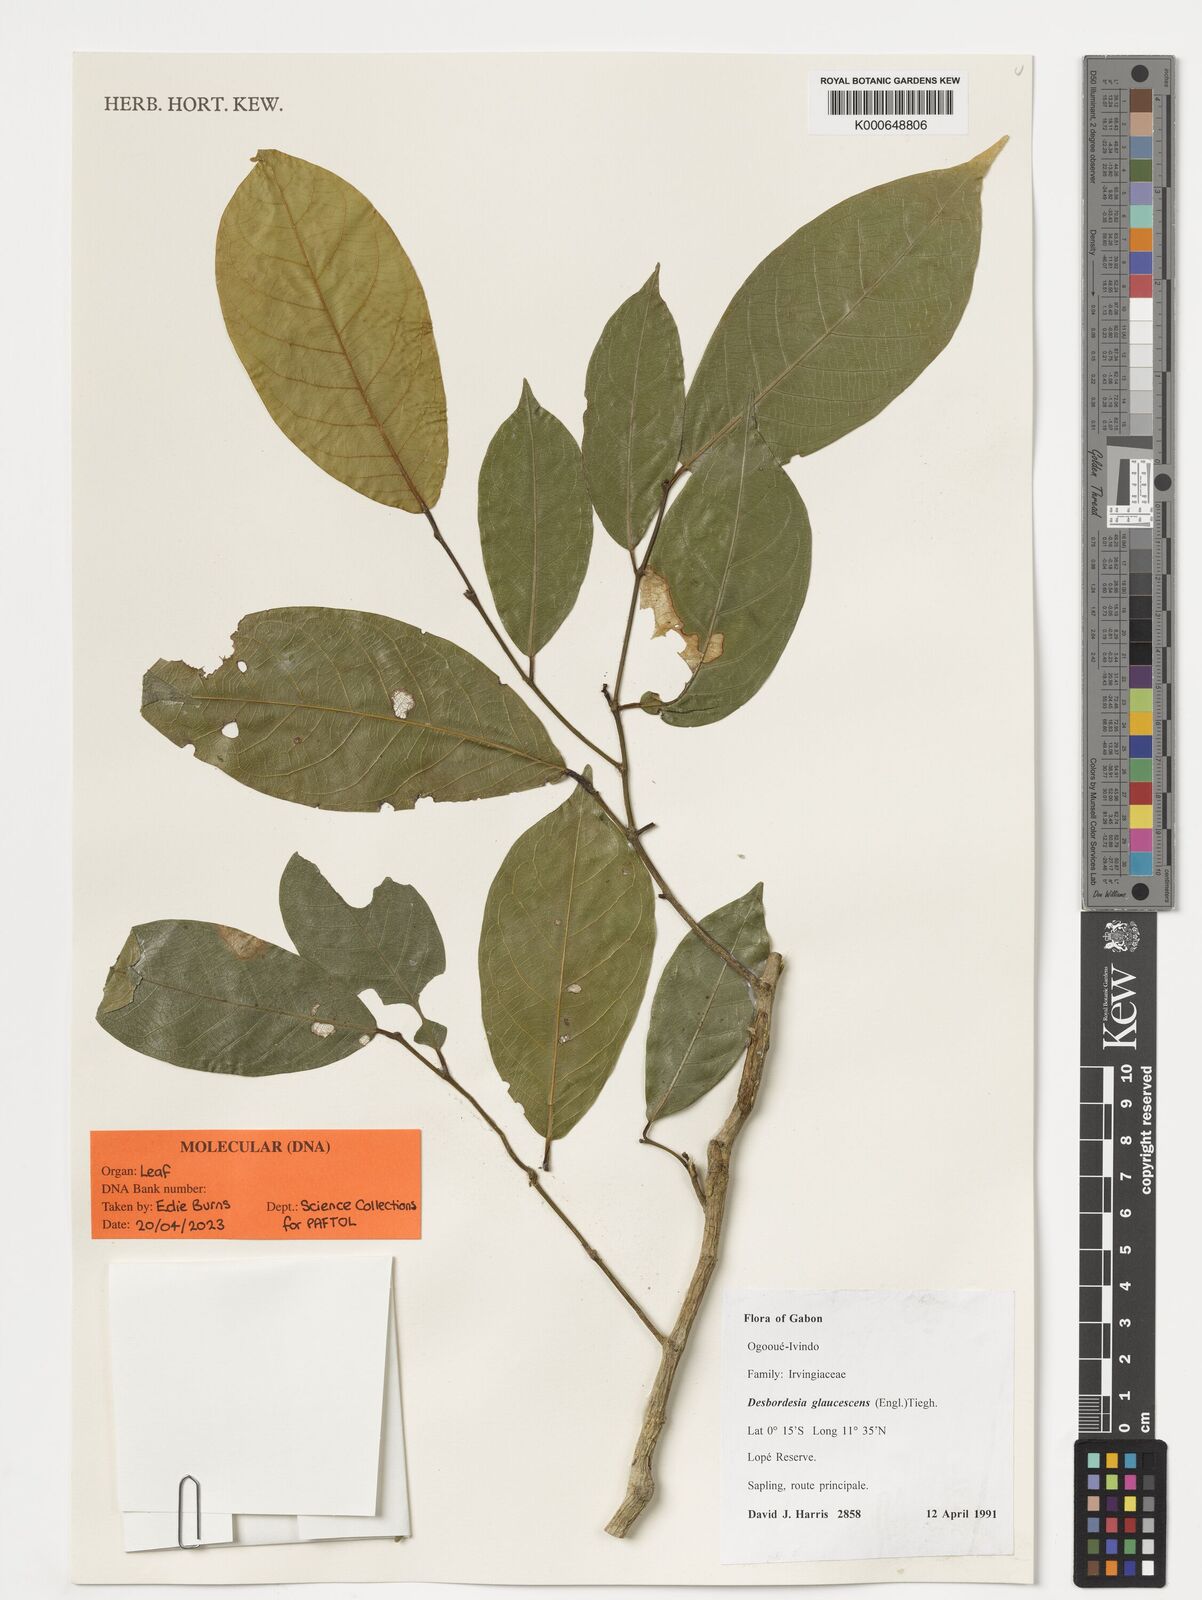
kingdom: Plantae
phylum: Tracheophyta
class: Magnoliopsida
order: Malpighiales
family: Irvingiaceae
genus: Desbordesia
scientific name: Desbordesia glaucescens
